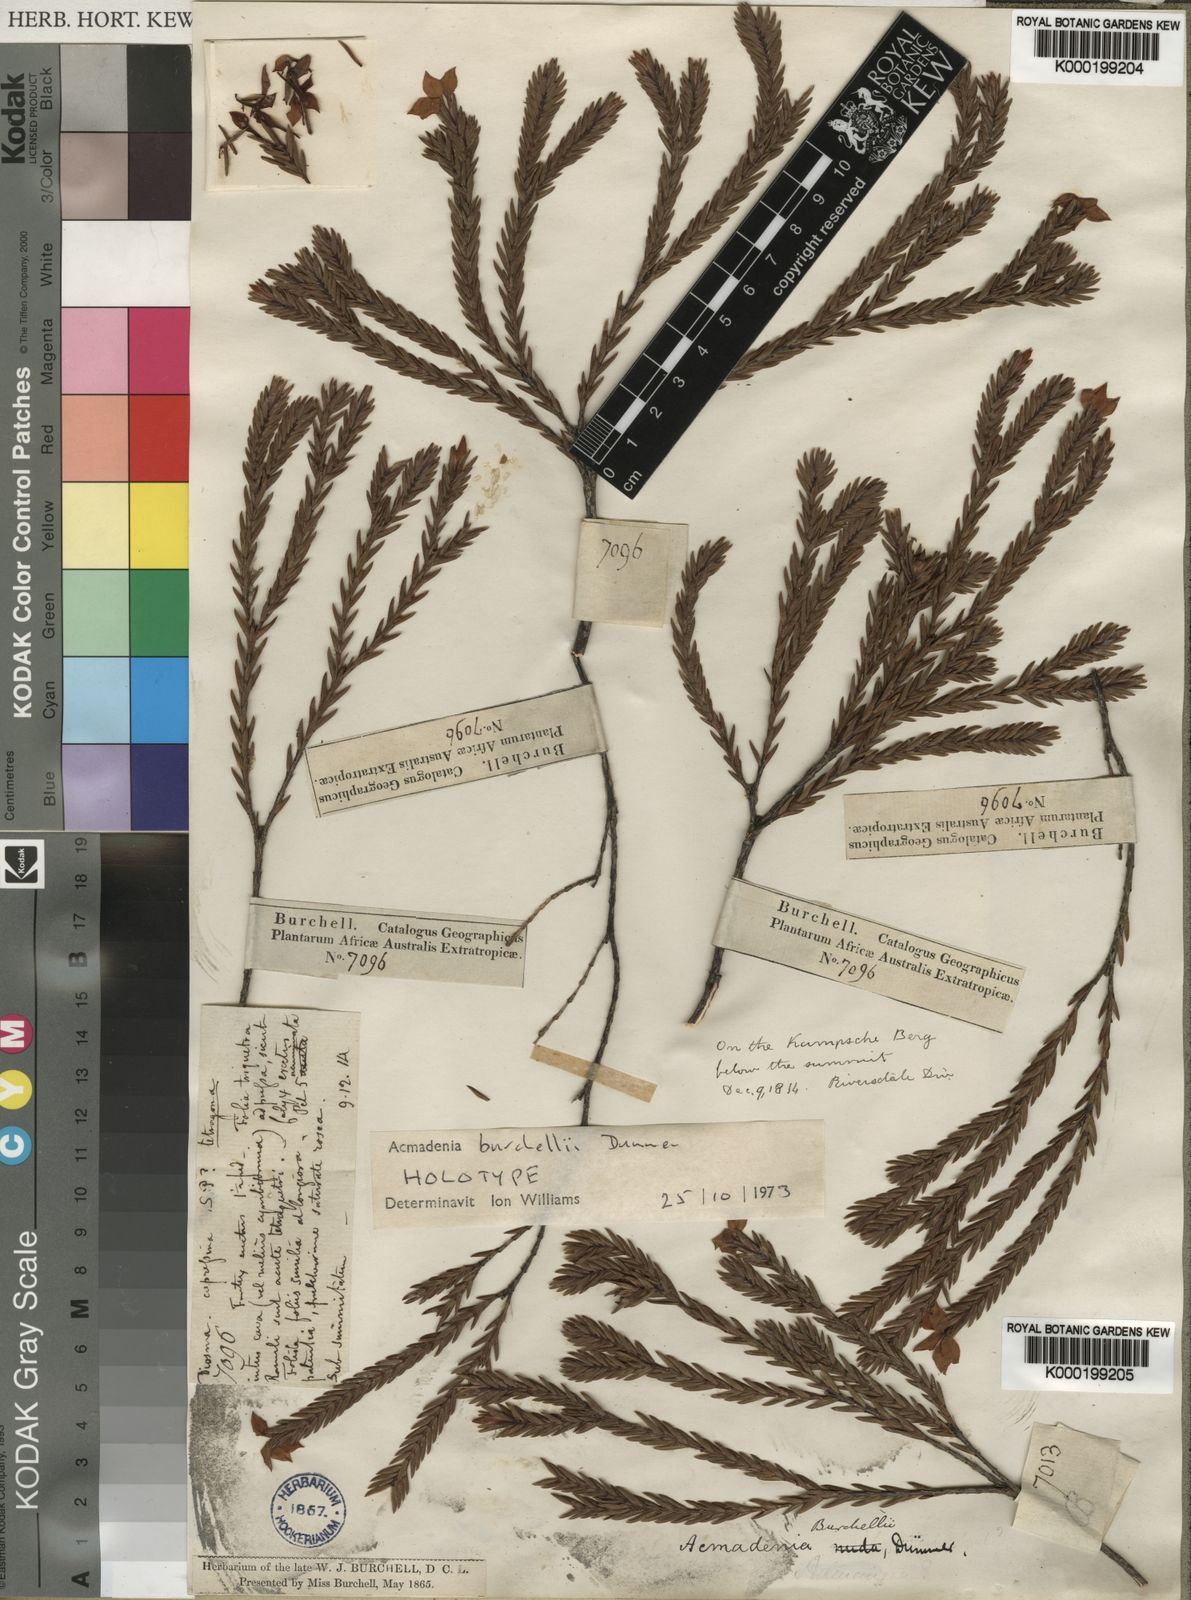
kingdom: Plantae
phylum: Tracheophyta
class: Magnoliopsida
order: Sapindales
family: Rutaceae
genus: Acmadenia
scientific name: Acmadenia burchellii
